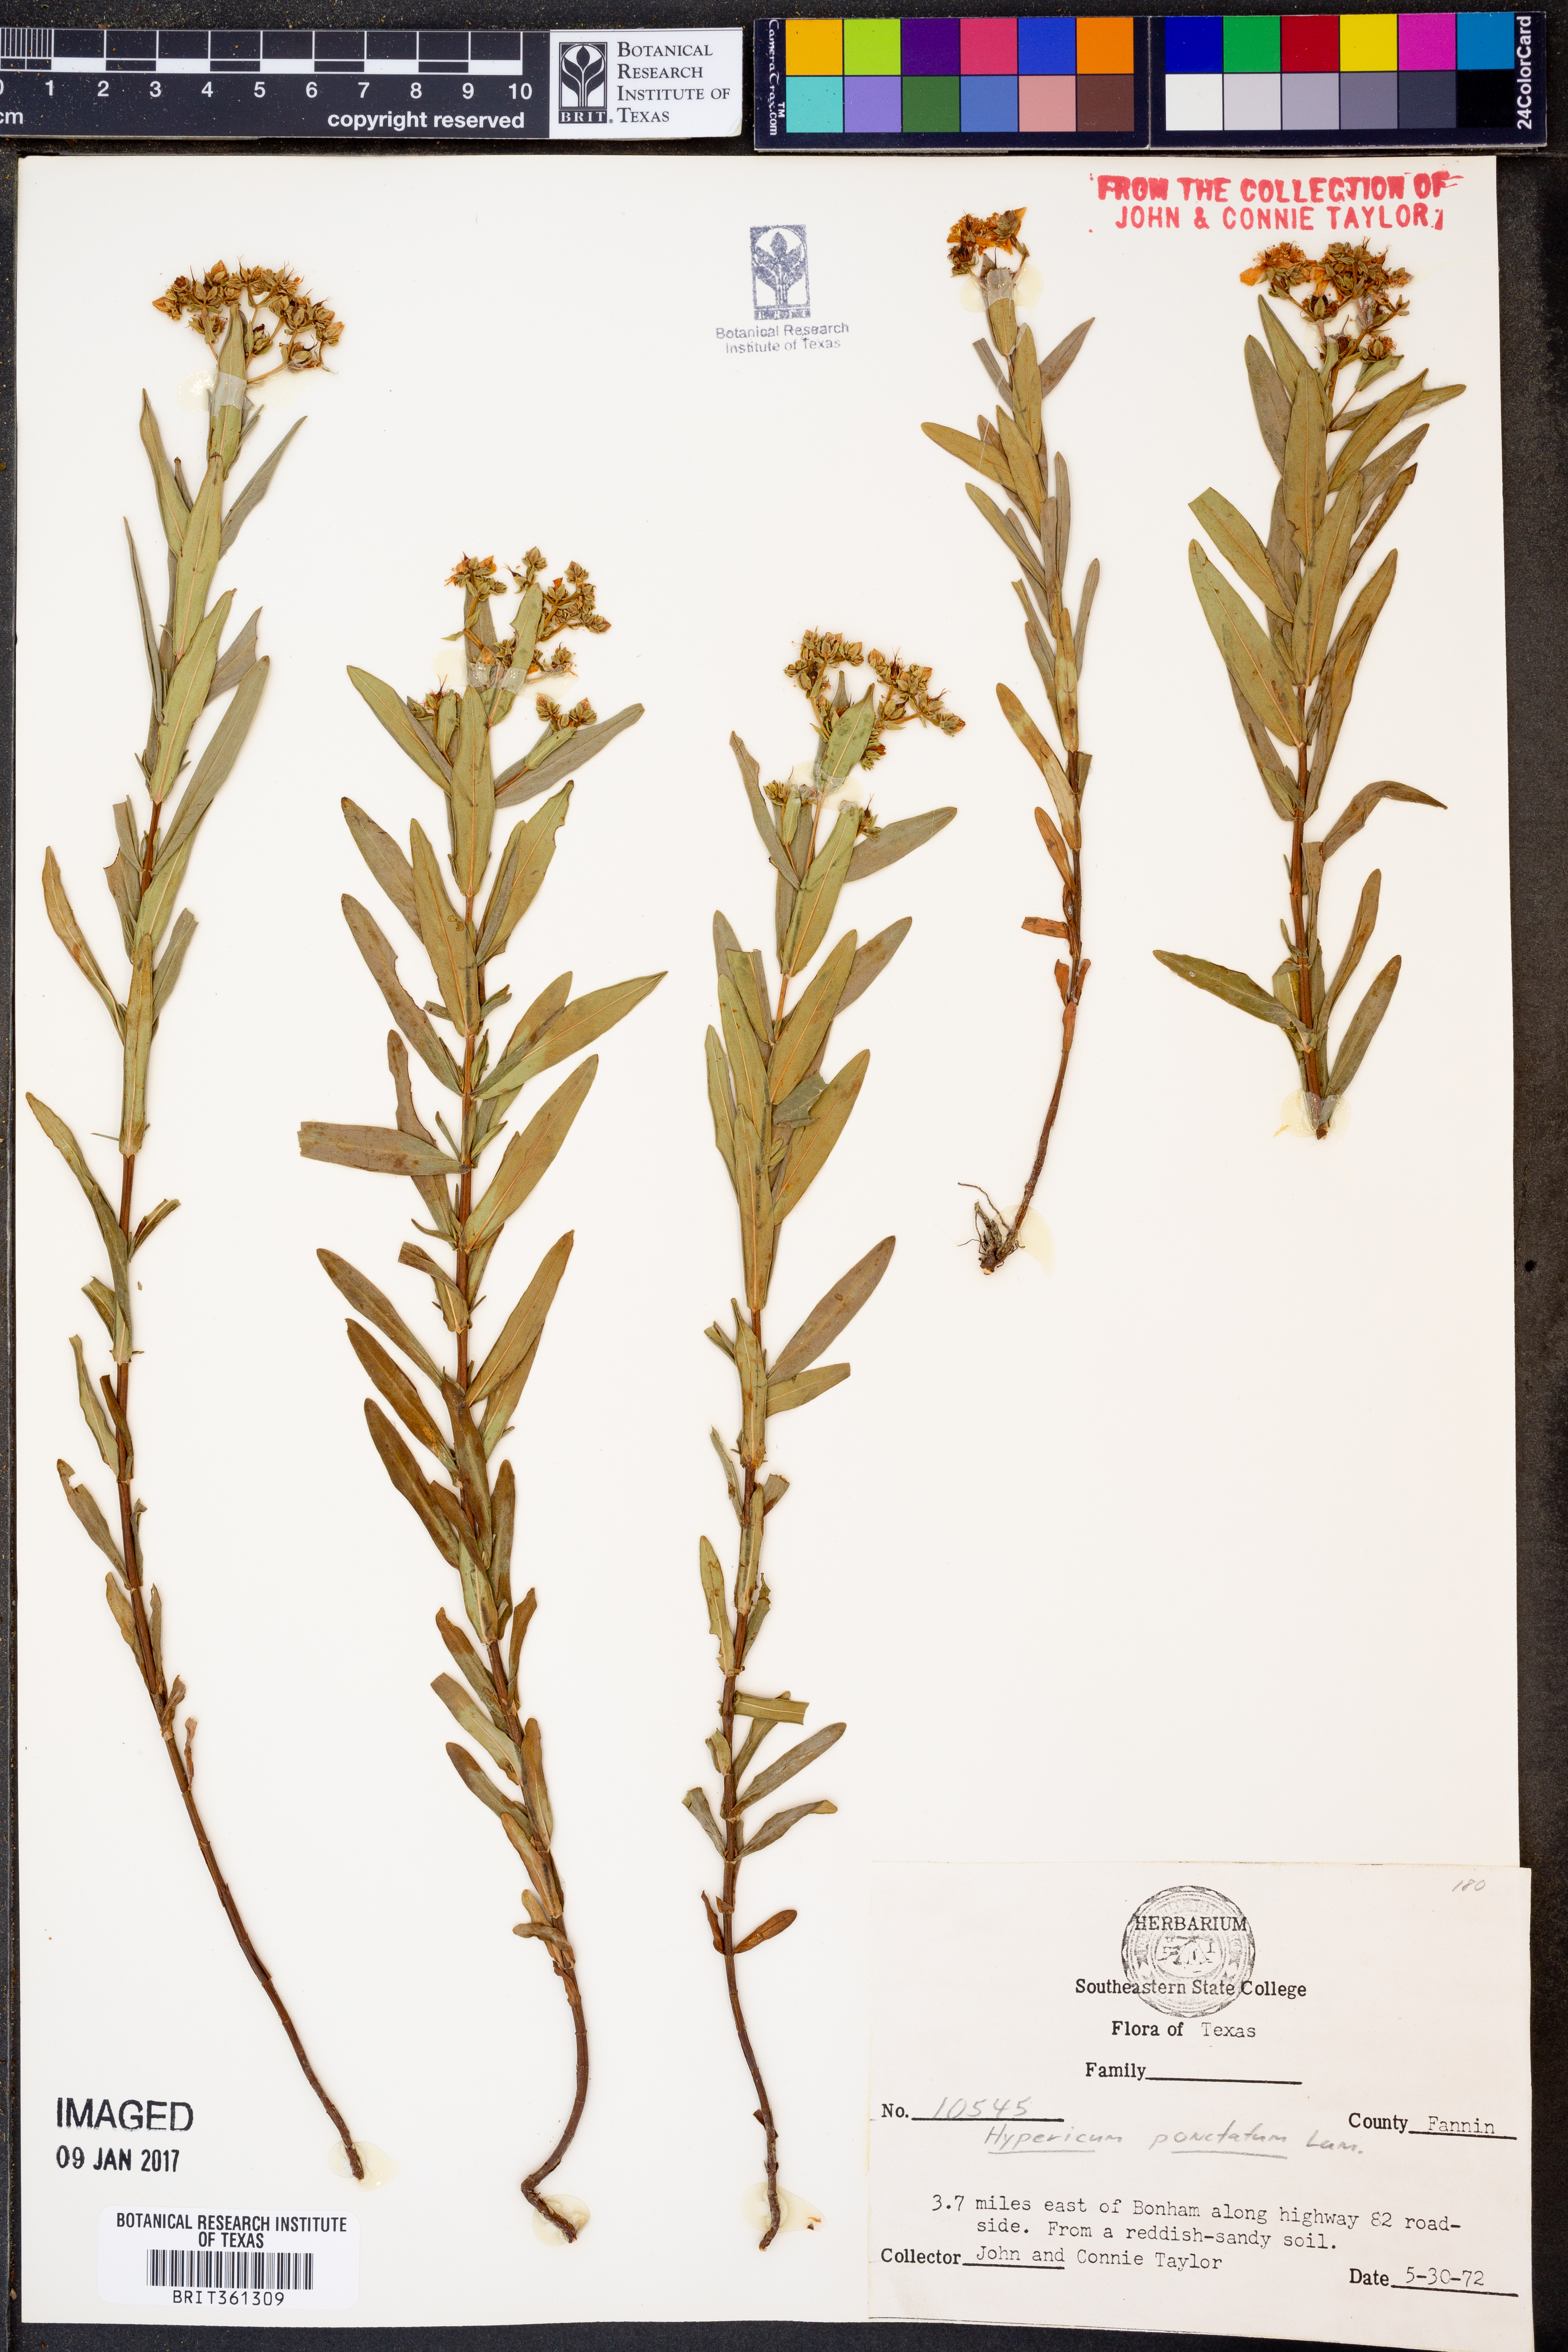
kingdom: Plantae
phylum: Tracheophyta
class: Magnoliopsida
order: Malpighiales
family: Hypericaceae
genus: Hypericum
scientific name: Hypericum punctatum
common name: Spotted st. john's-wort
